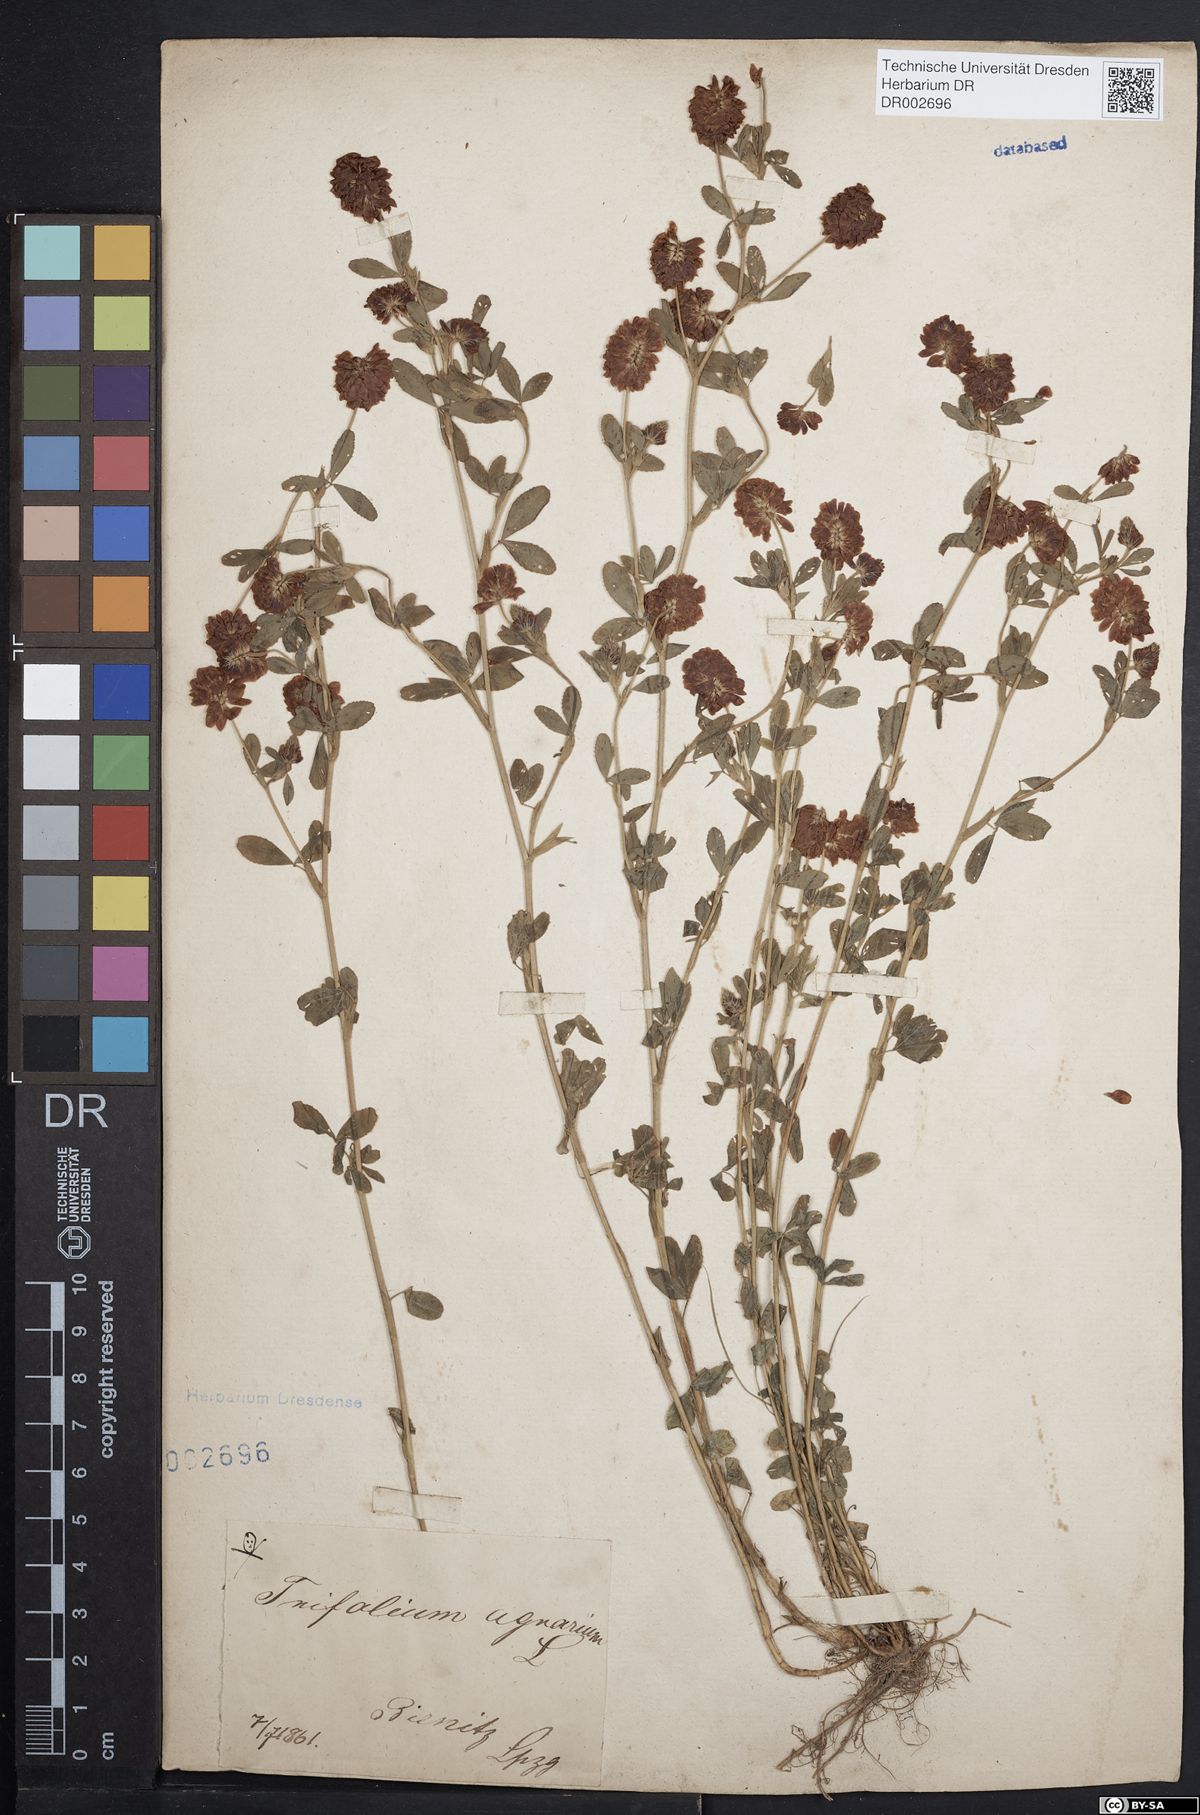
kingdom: Plantae
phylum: Tracheophyta
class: Magnoliopsida
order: Fabales
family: Fabaceae
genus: Trifolium
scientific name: Trifolium aureum
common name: Golden clover
